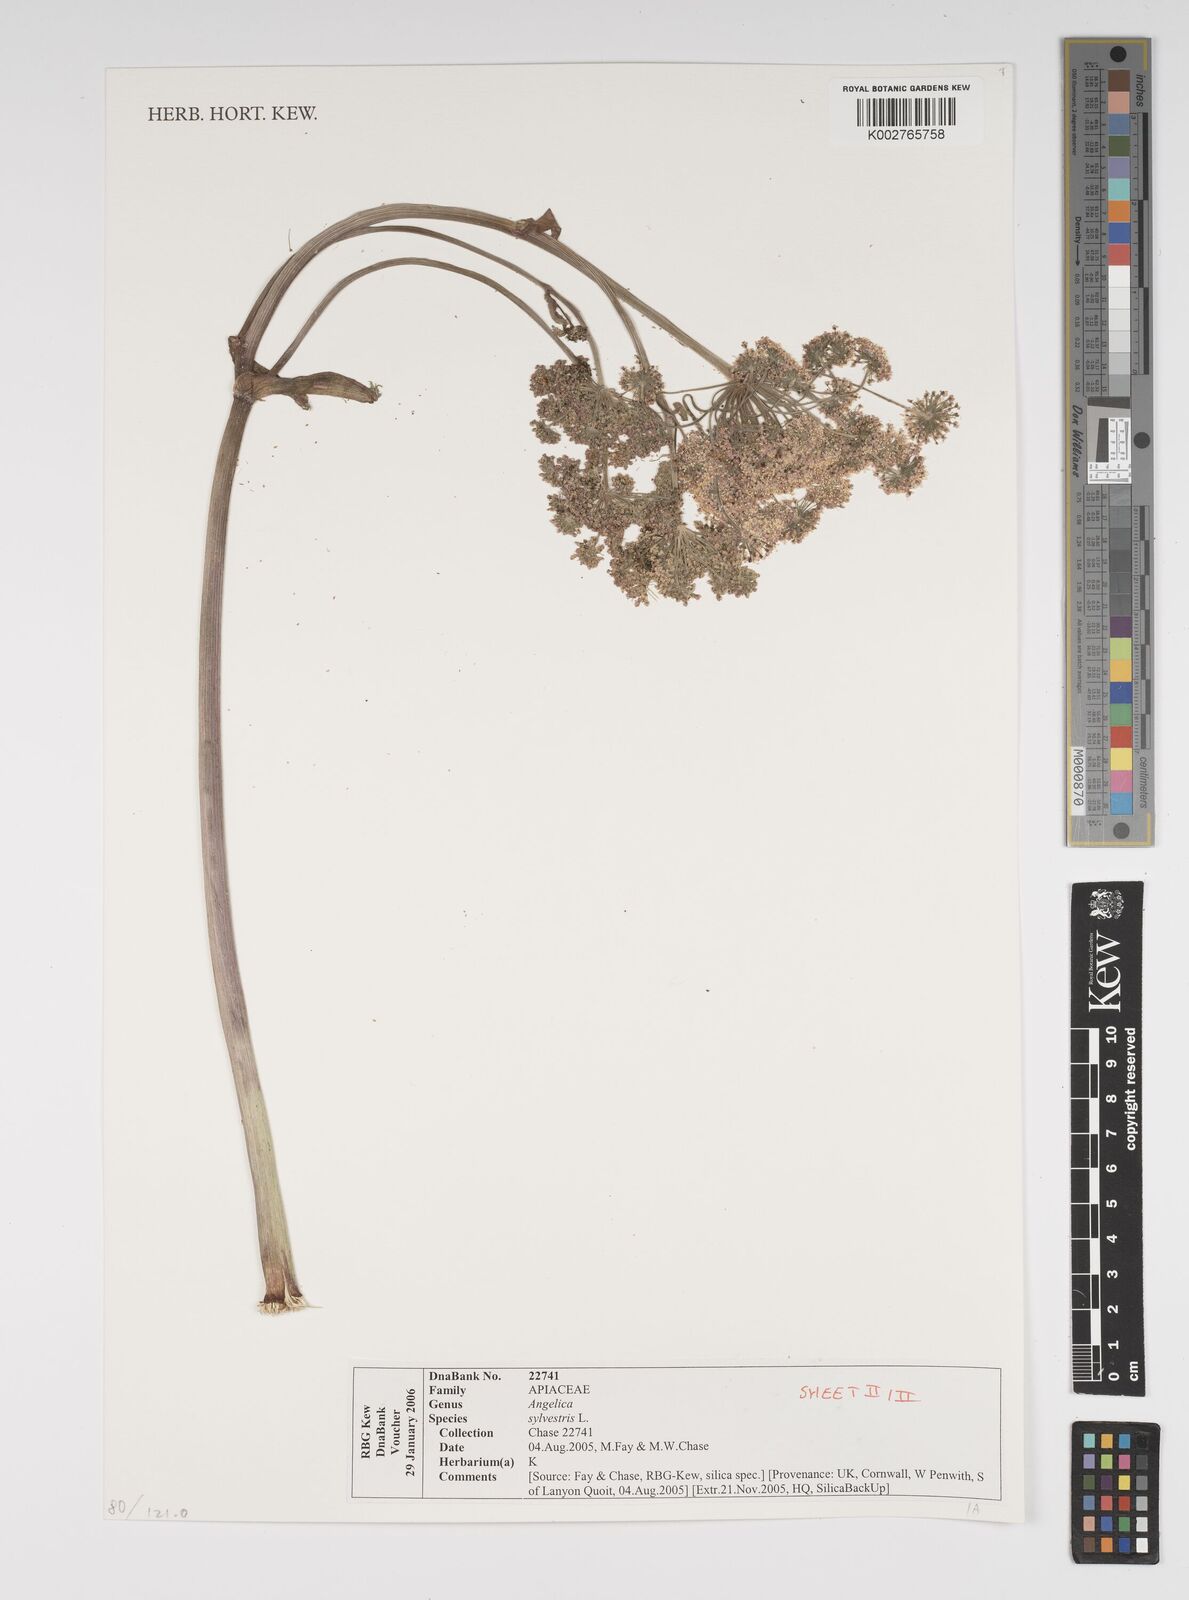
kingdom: Plantae
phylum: Tracheophyta
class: Magnoliopsida
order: Apiales
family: Apiaceae
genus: Angelica
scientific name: Angelica sylvestris
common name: Wild angelica
